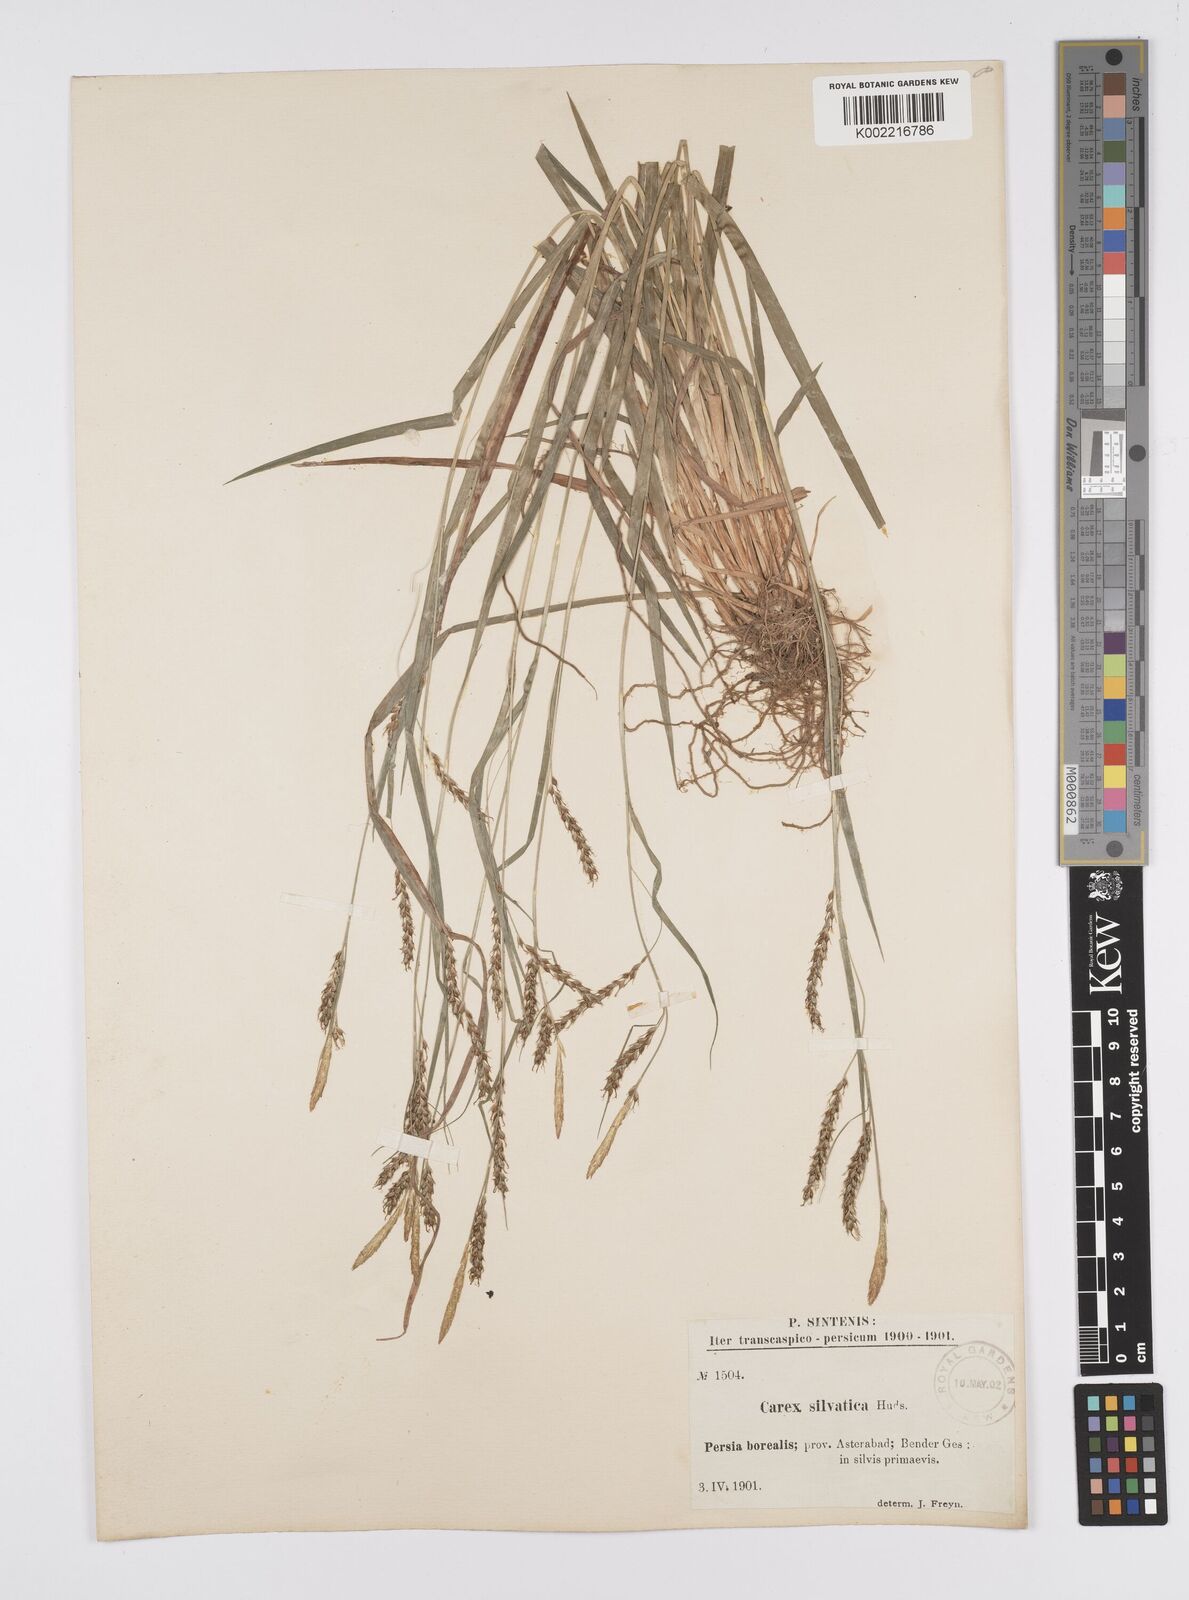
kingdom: Plantae
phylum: Tracheophyta
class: Liliopsida
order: Poales
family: Cyperaceae
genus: Carex
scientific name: Carex sylvatica
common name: Wood-sedge
